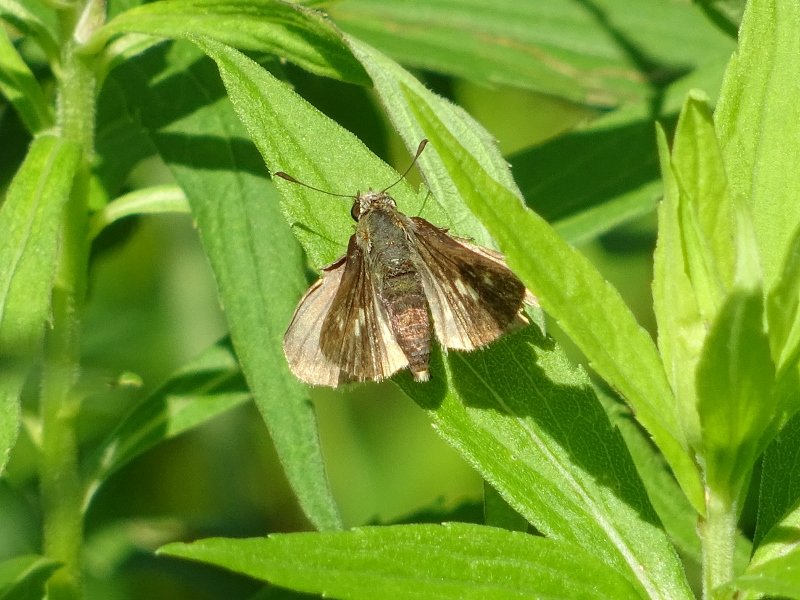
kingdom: Animalia
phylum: Arthropoda
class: Insecta
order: Lepidoptera
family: Hesperiidae
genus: Polites
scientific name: Polites egeremet
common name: Northern Broken-Dash
